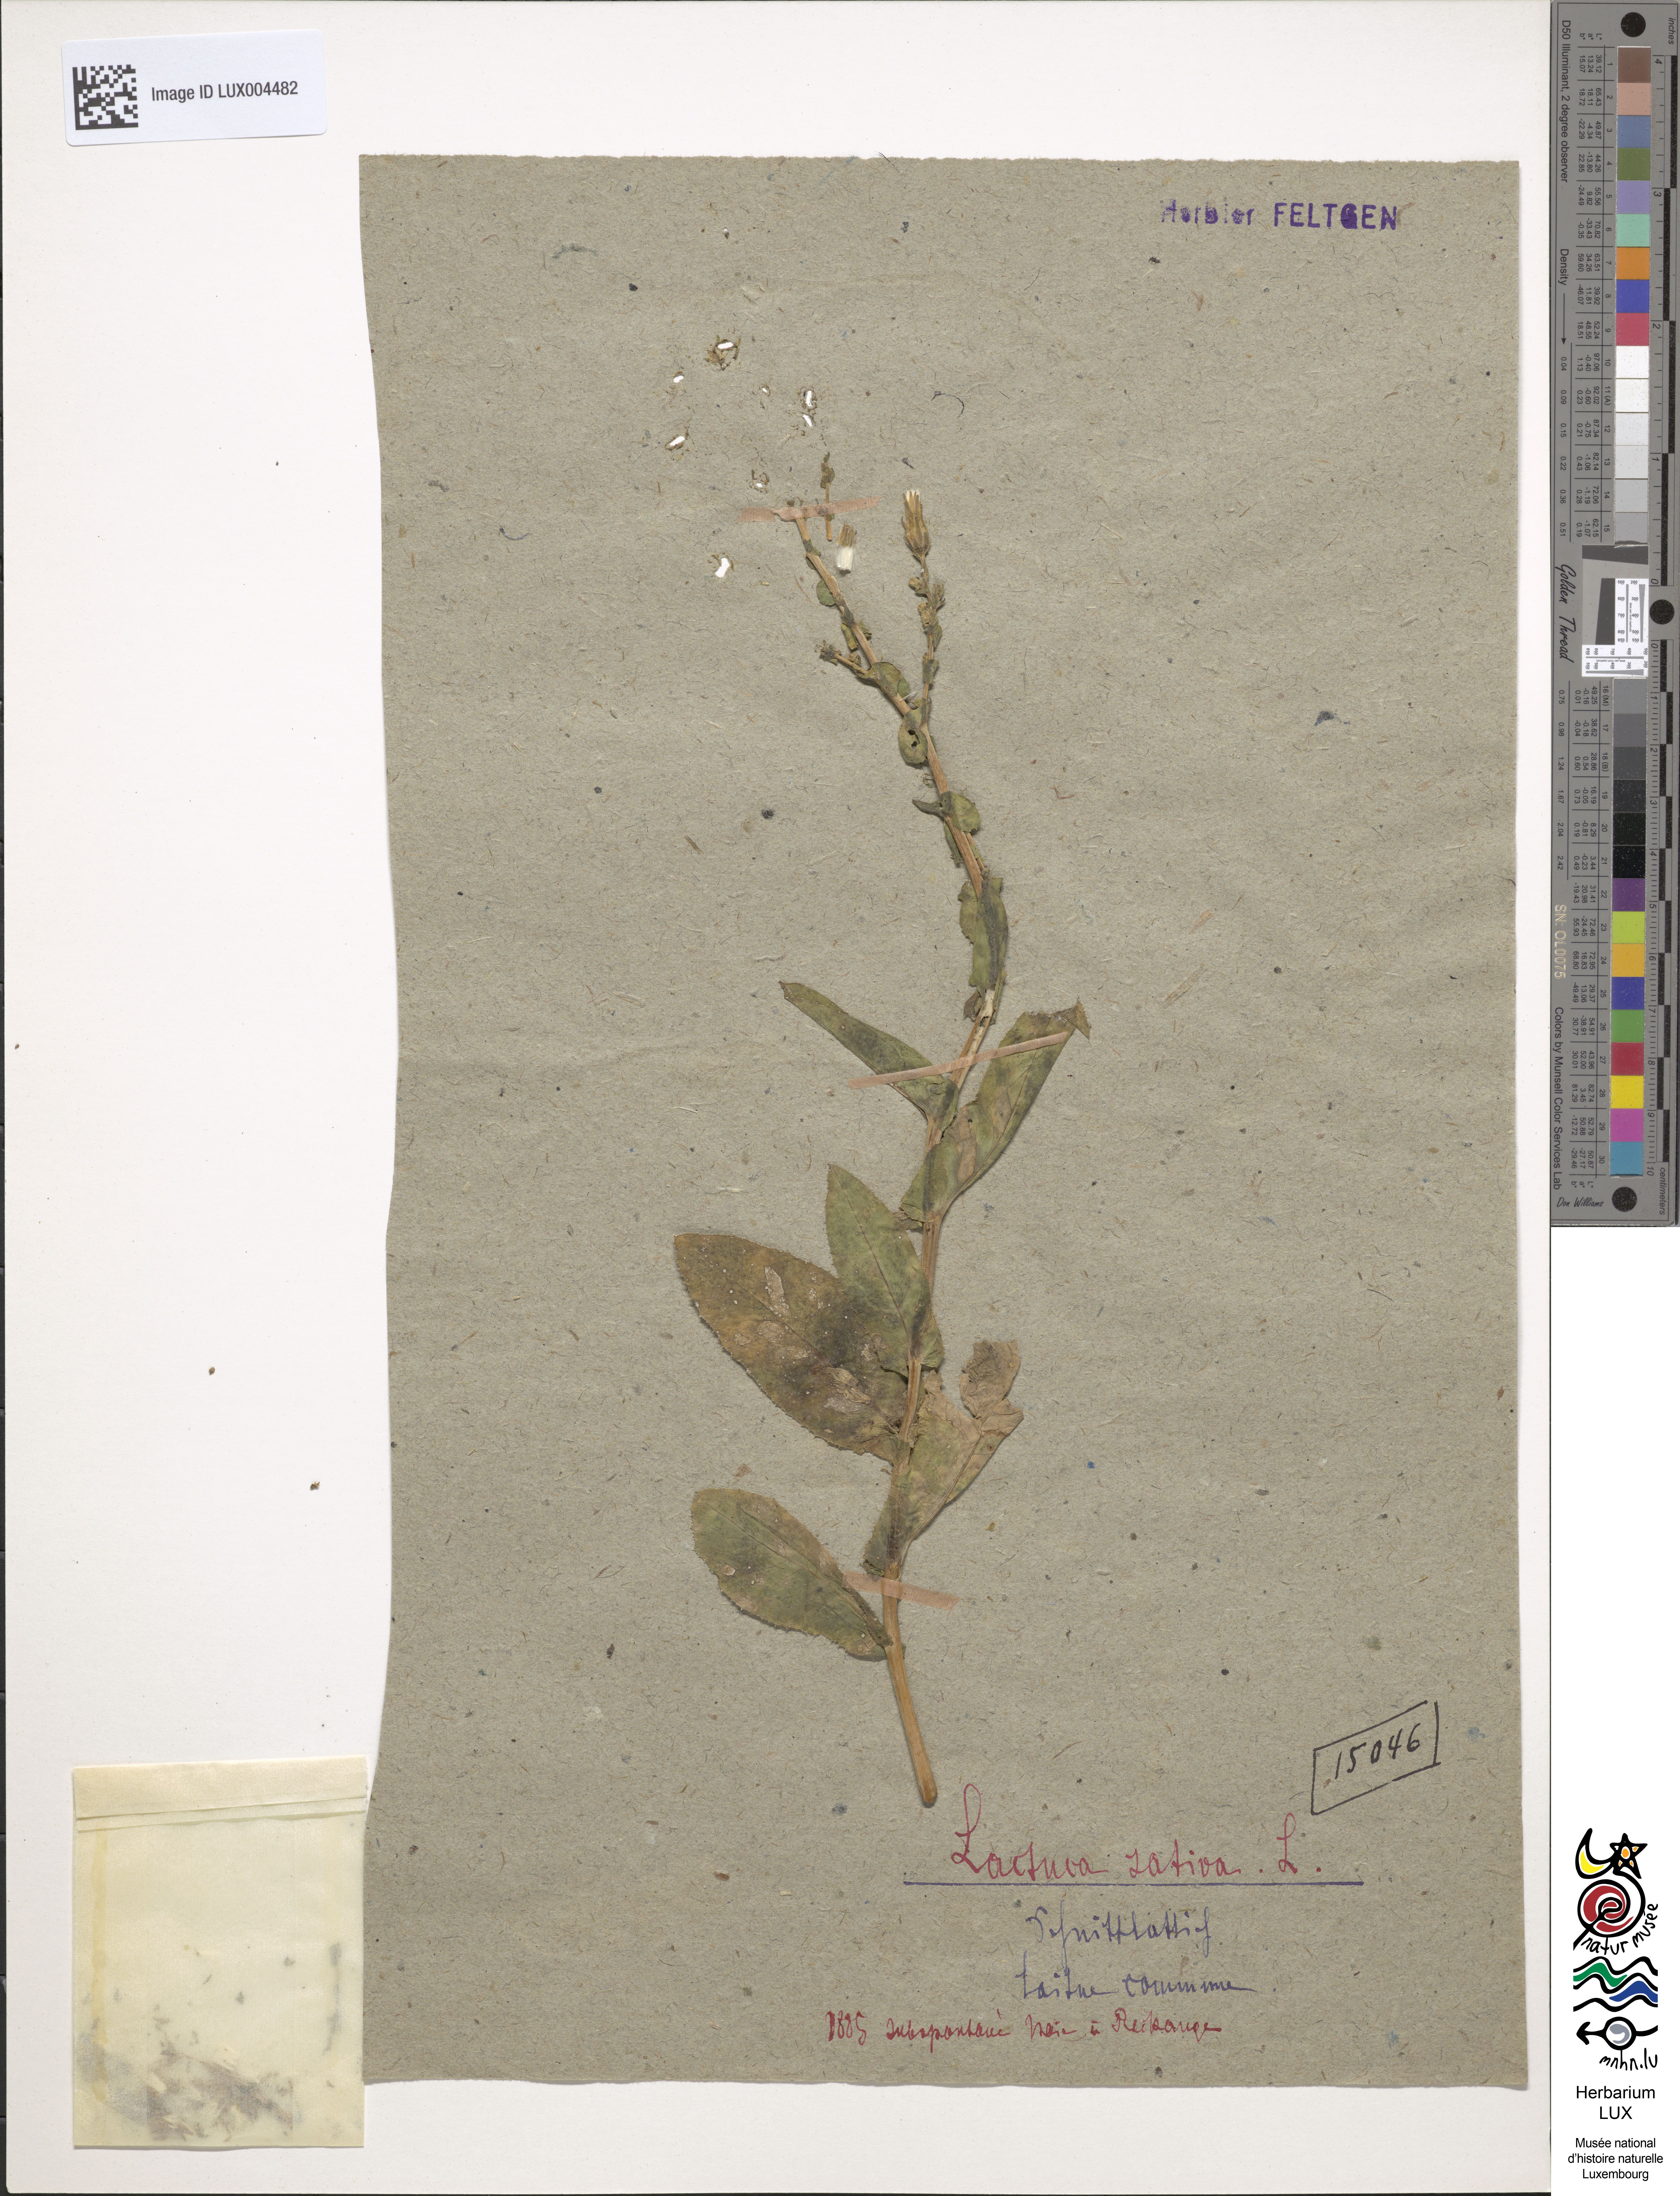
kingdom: Plantae
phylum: Tracheophyta
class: Magnoliopsida
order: Asterales
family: Asteraceae
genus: Lactuca
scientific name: Lactuca sativa
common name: Garden lettuce
